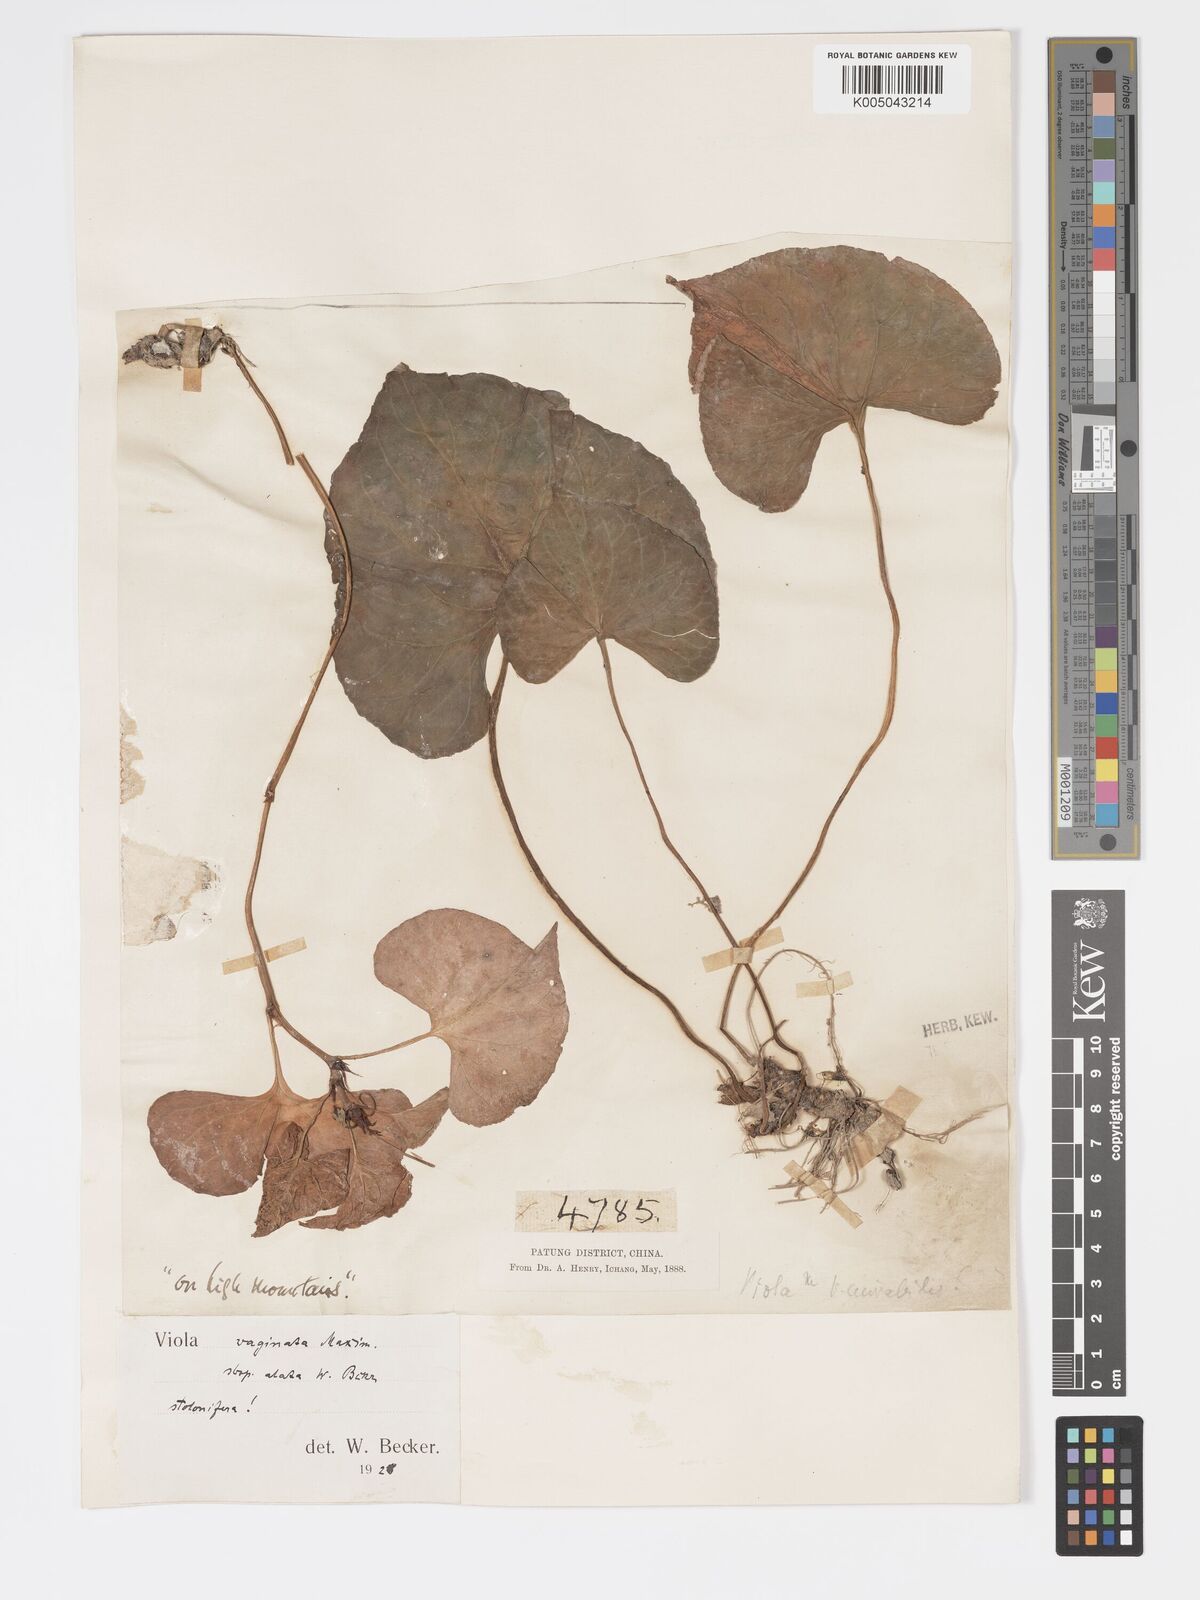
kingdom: Plantae
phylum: Tracheophyta
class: Magnoliopsida
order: Malpighiales
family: Violaceae
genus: Viola
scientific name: Viola vaginata
